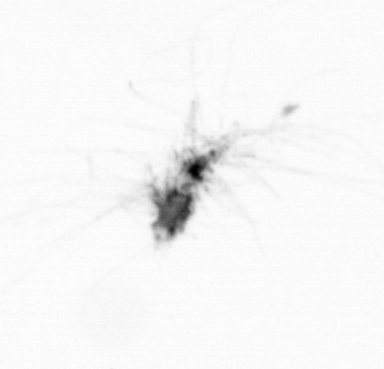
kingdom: Chromista
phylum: Ochrophyta
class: Bacillariophyceae
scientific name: Bacillariophyceae
